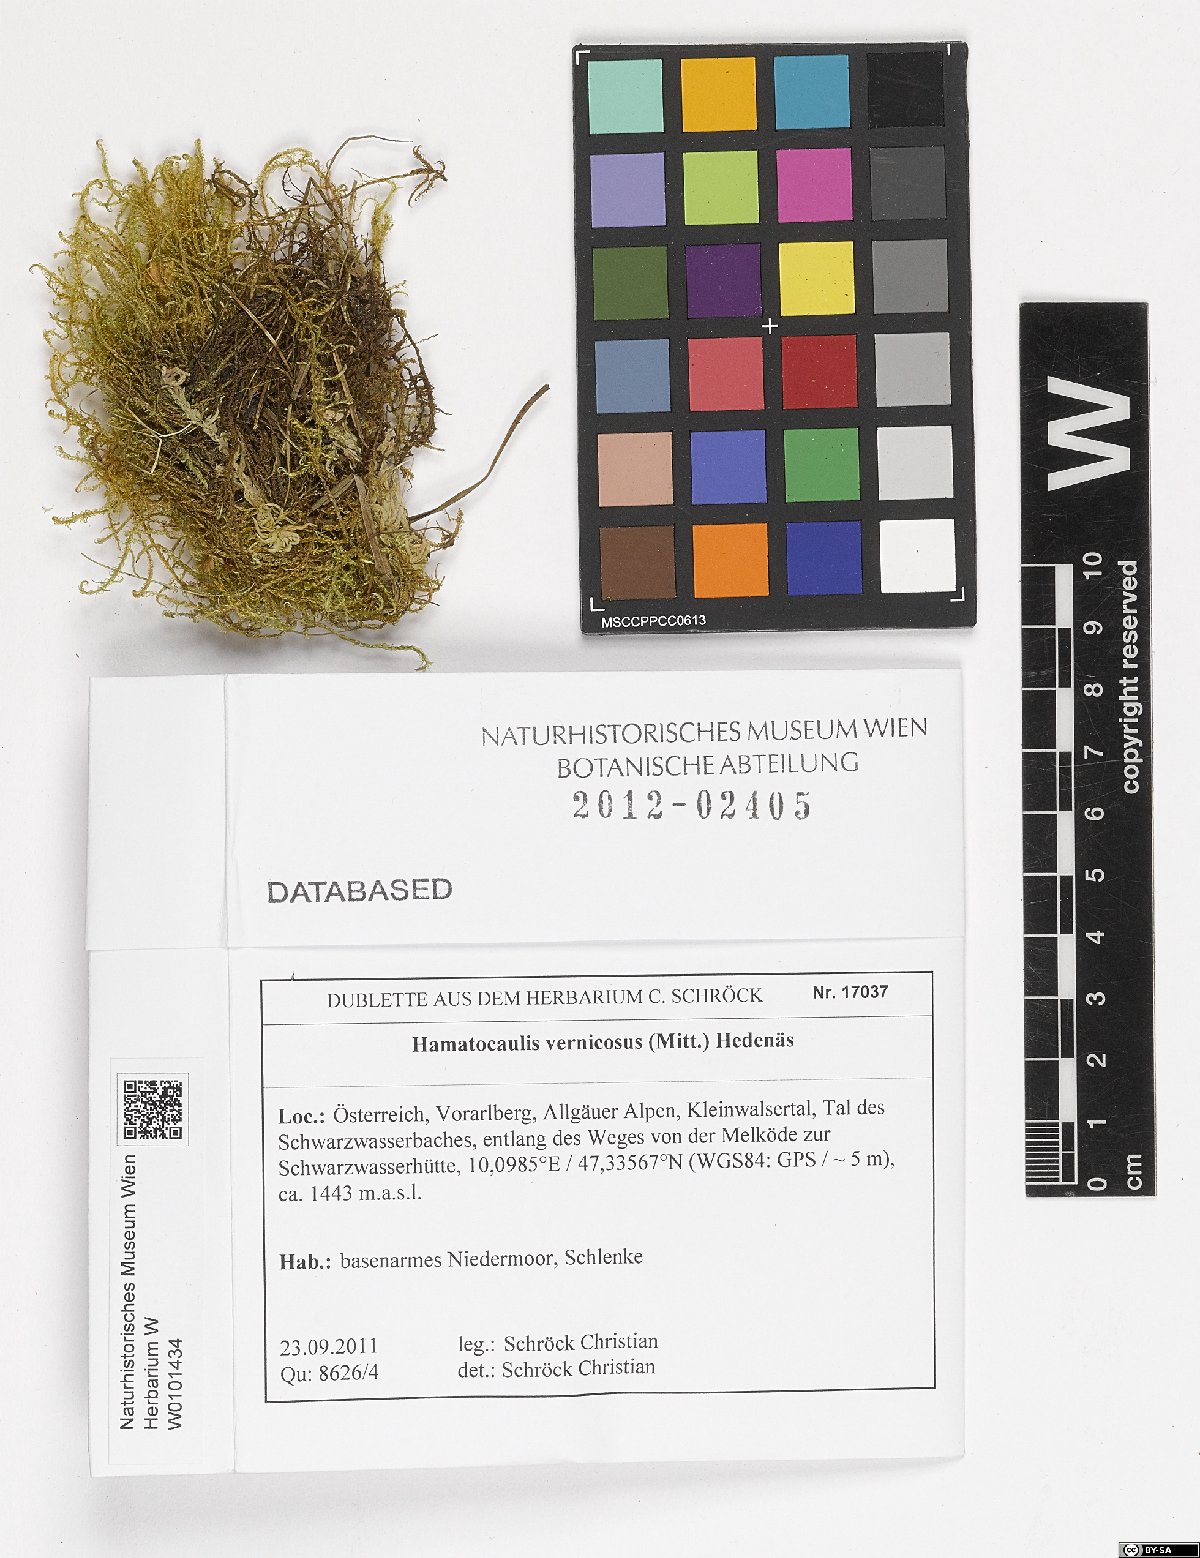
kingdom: Plantae
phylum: Bryophyta
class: Bryopsida
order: Hypnales
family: Scorpidiaceae
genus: Hamatocaulis
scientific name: Hamatocaulis vernicosus
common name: Varnished hook moss
